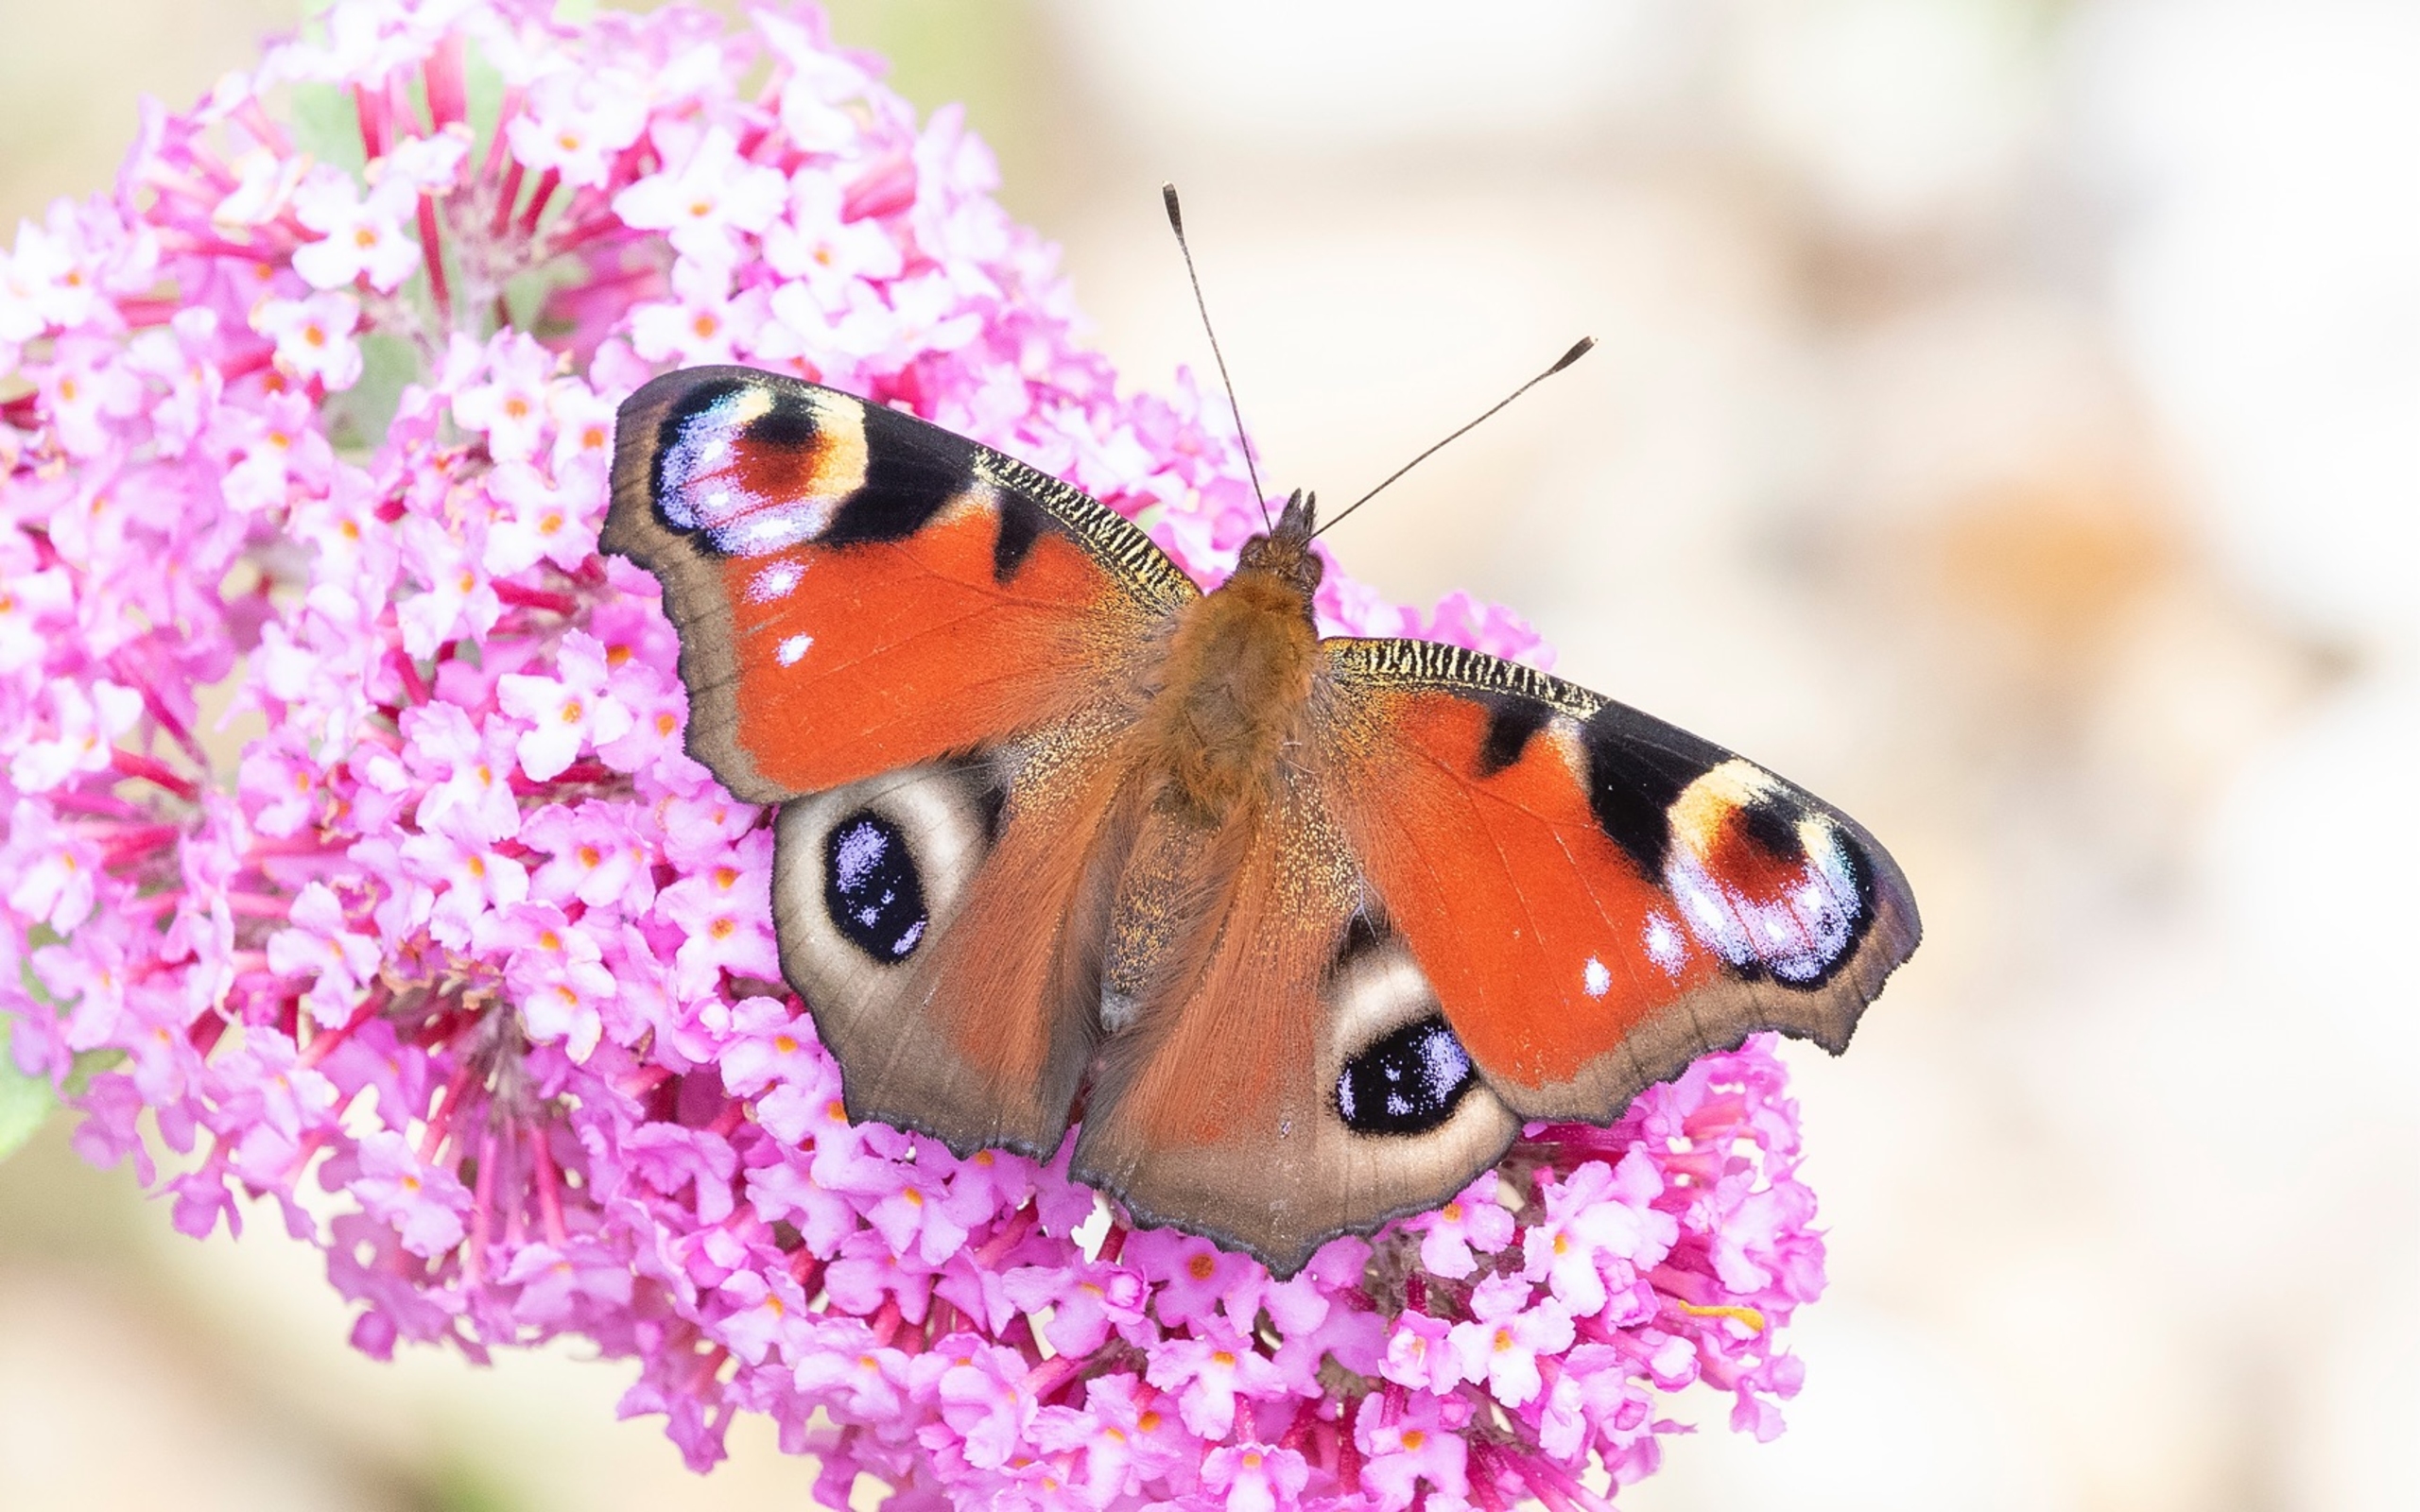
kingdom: Animalia
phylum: Arthropoda
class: Insecta
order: Lepidoptera
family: Nymphalidae
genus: Aglais
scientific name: Aglais io
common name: Dagpåfugleøje
